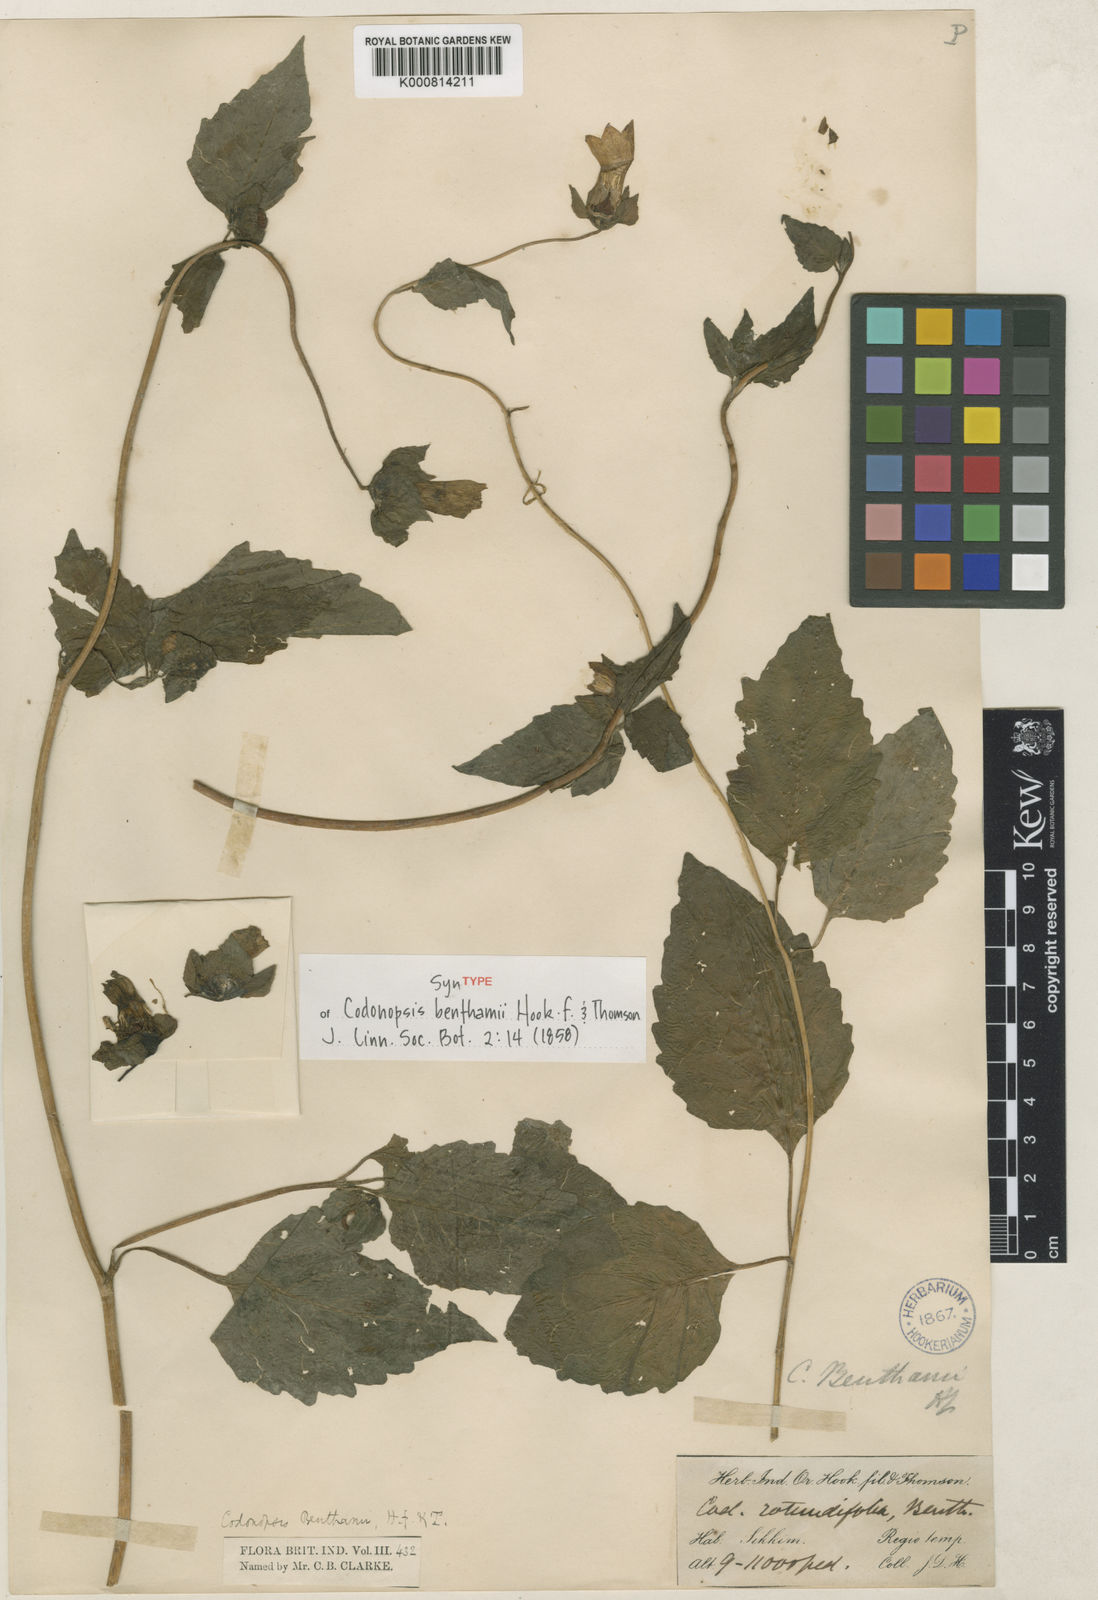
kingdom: Plantae
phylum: Tracheophyta
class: Magnoliopsida
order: Asterales
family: Campanulaceae
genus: Codonopsis
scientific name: Codonopsis benthamii
